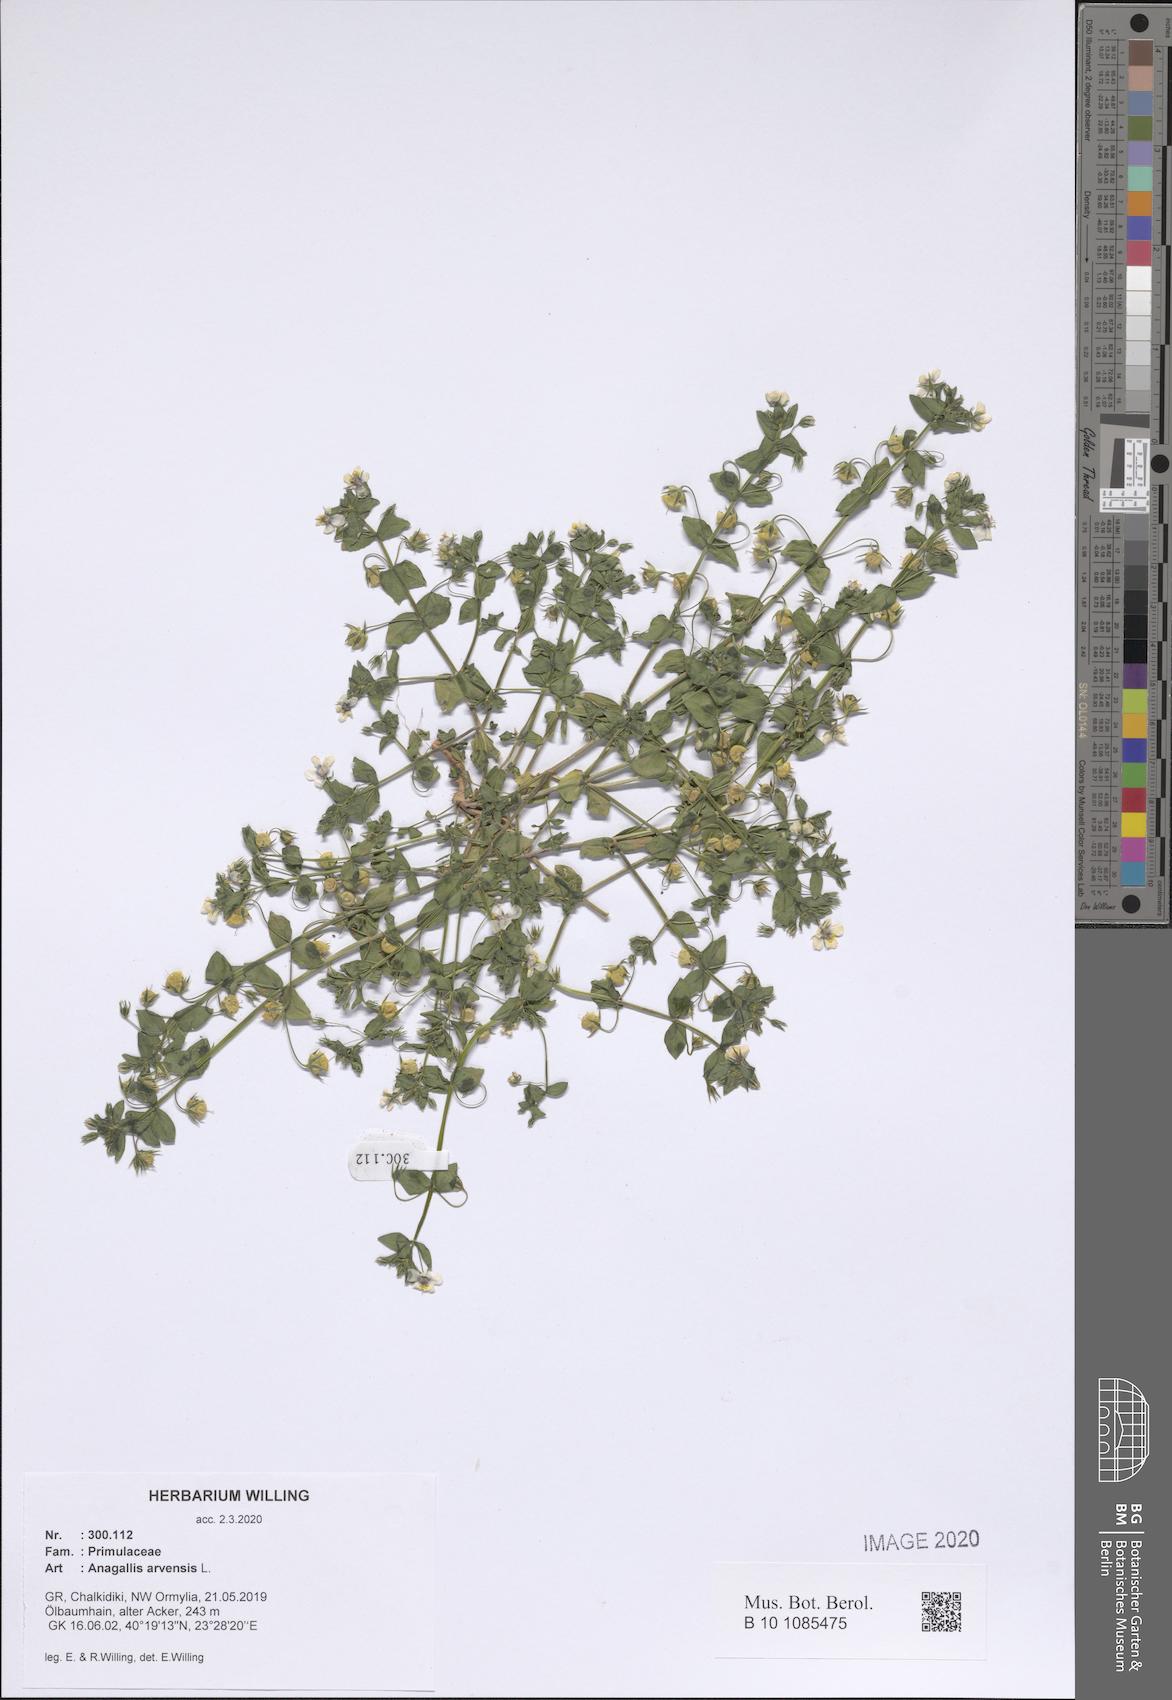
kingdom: Plantae
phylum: Tracheophyta
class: Magnoliopsida
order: Ericales
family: Primulaceae
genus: Lysimachia
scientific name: Lysimachia arvensis
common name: Scarlet pimpernel
